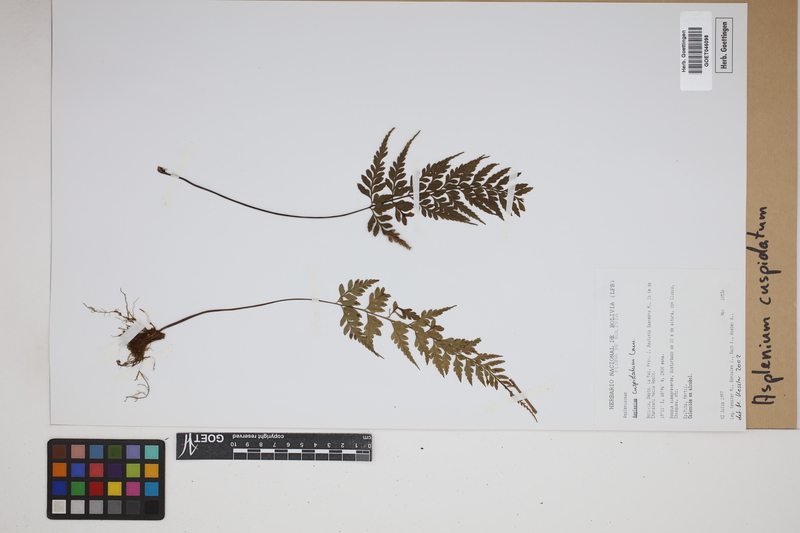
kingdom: Plantae
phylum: Tracheophyta
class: Polypodiopsida
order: Polypodiales
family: Aspleniaceae
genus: Asplenium
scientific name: Asplenium cuspidatum
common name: Eared spleenwort
